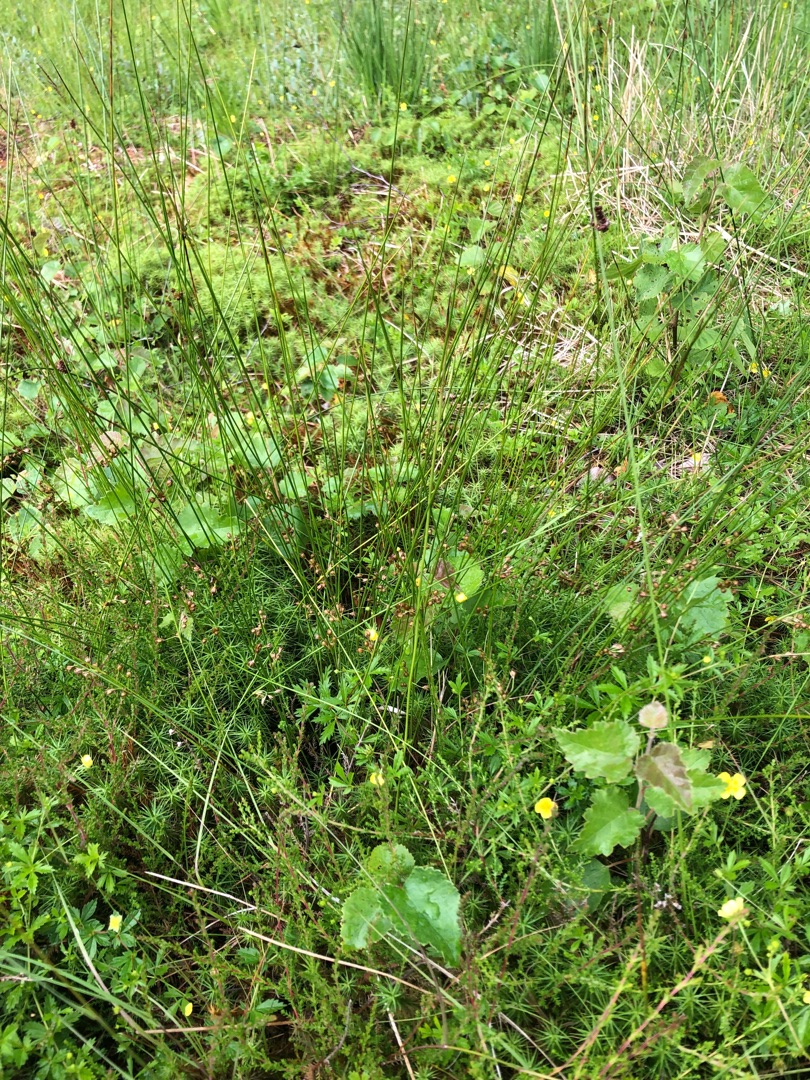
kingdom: Plantae
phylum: Tracheophyta
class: Liliopsida
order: Poales
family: Juncaceae
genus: Juncus
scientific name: Juncus filiformis
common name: Tråd-siv
